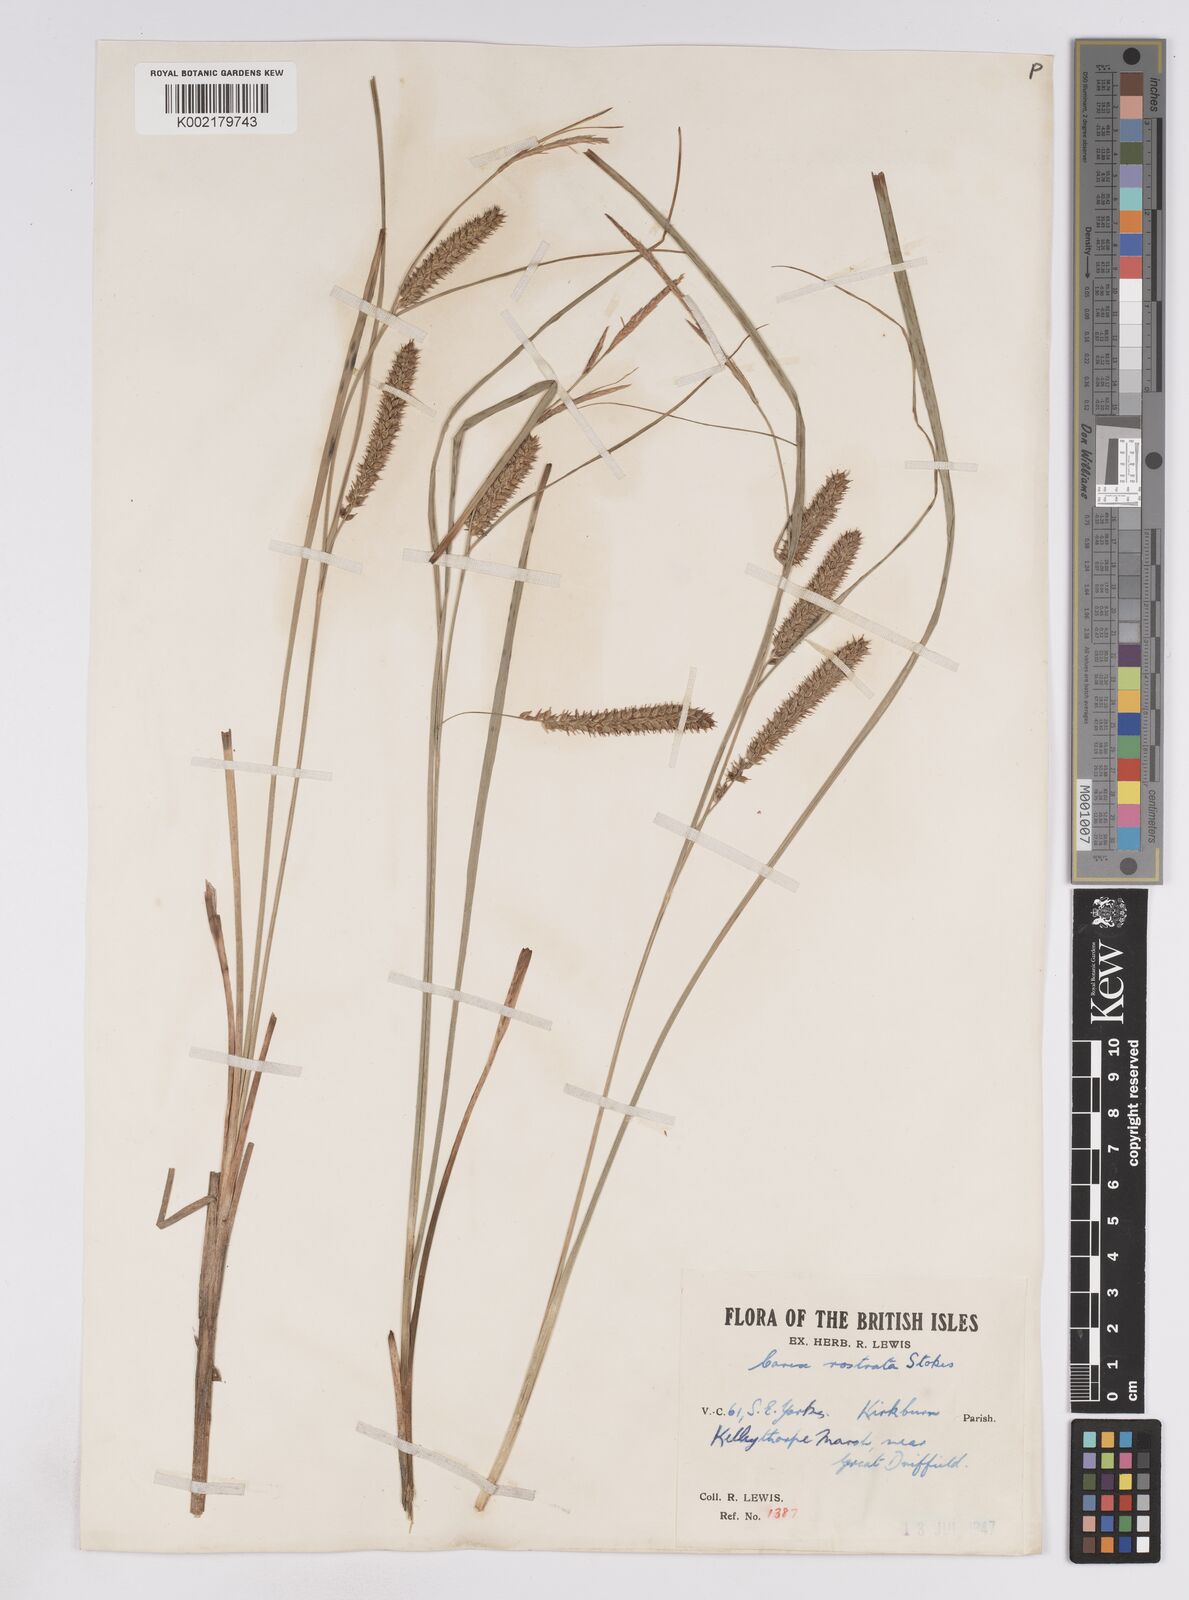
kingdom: Plantae
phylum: Tracheophyta
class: Liliopsida
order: Poales
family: Cyperaceae
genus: Carex
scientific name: Carex rostrata
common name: Bottle sedge
